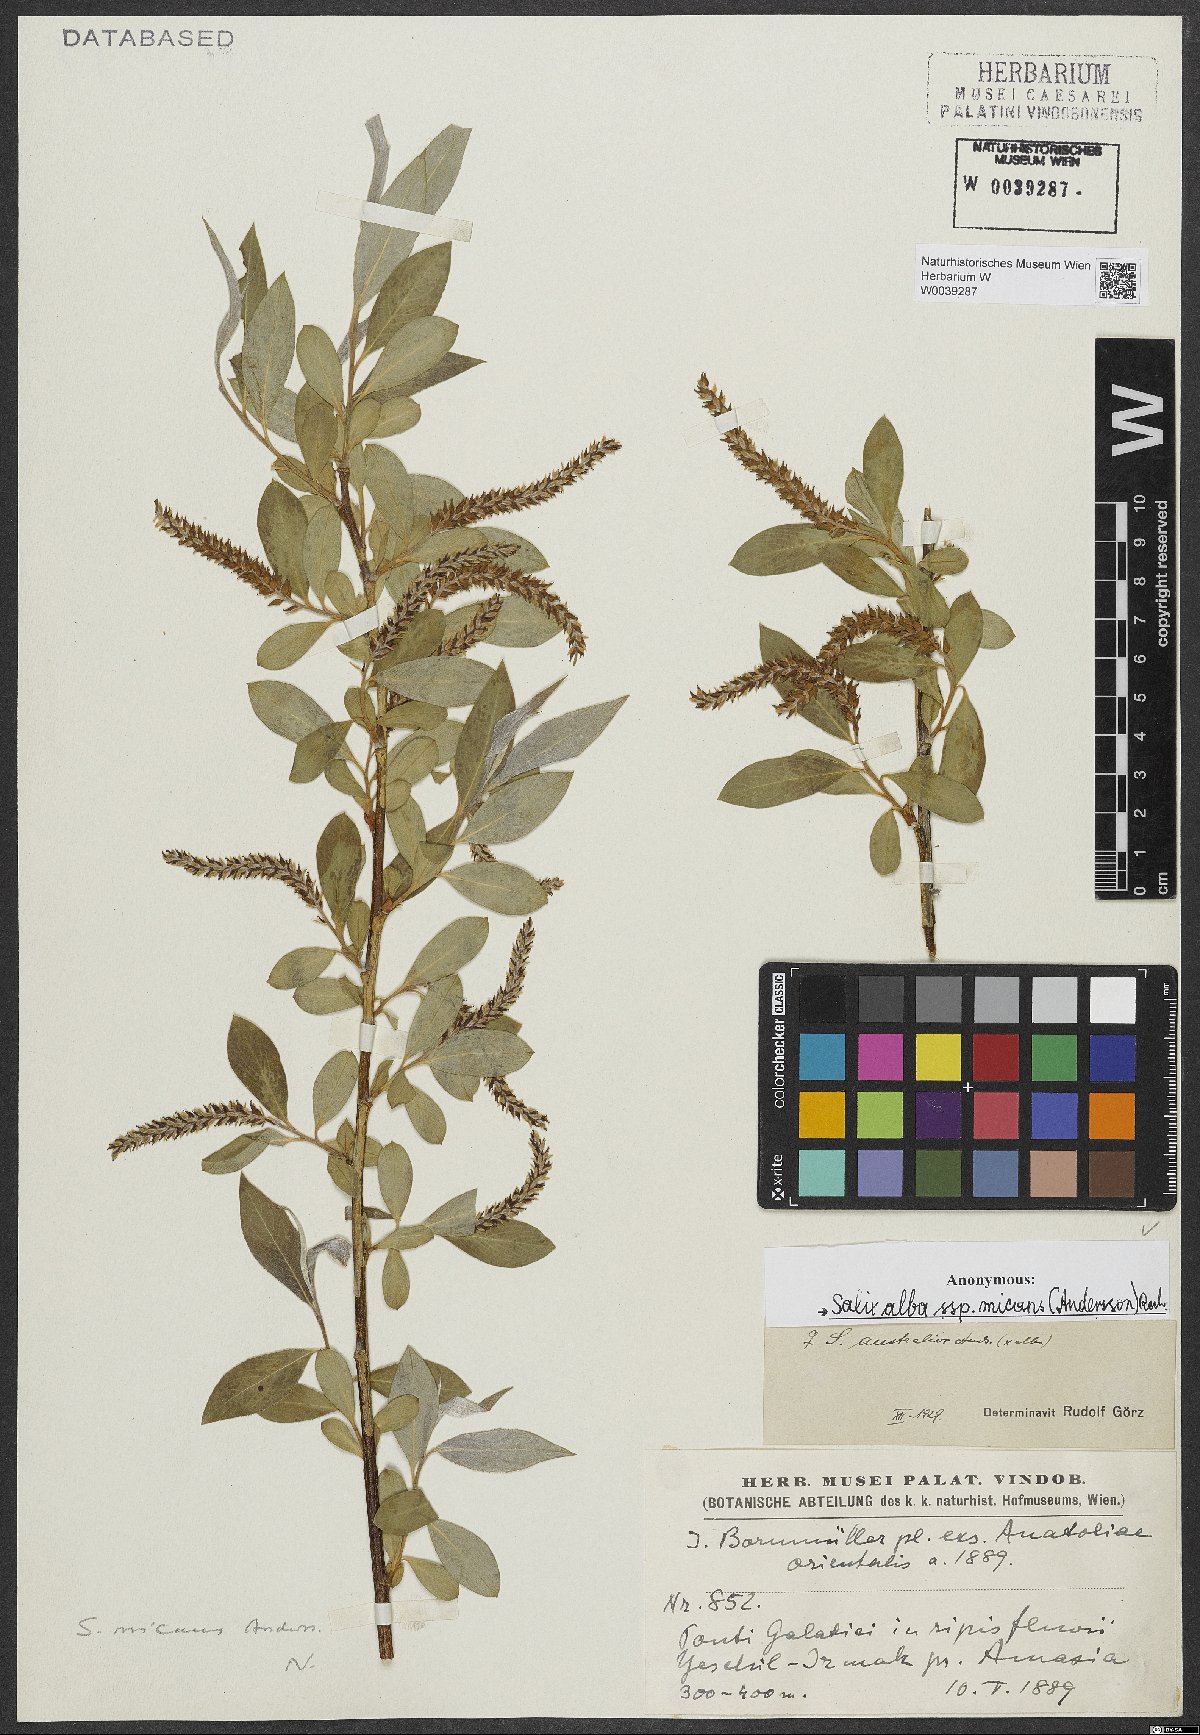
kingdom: Plantae
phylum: Tracheophyta
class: Magnoliopsida
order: Malpighiales
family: Salicaceae
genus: Salix
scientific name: Salix alba
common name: White willow
